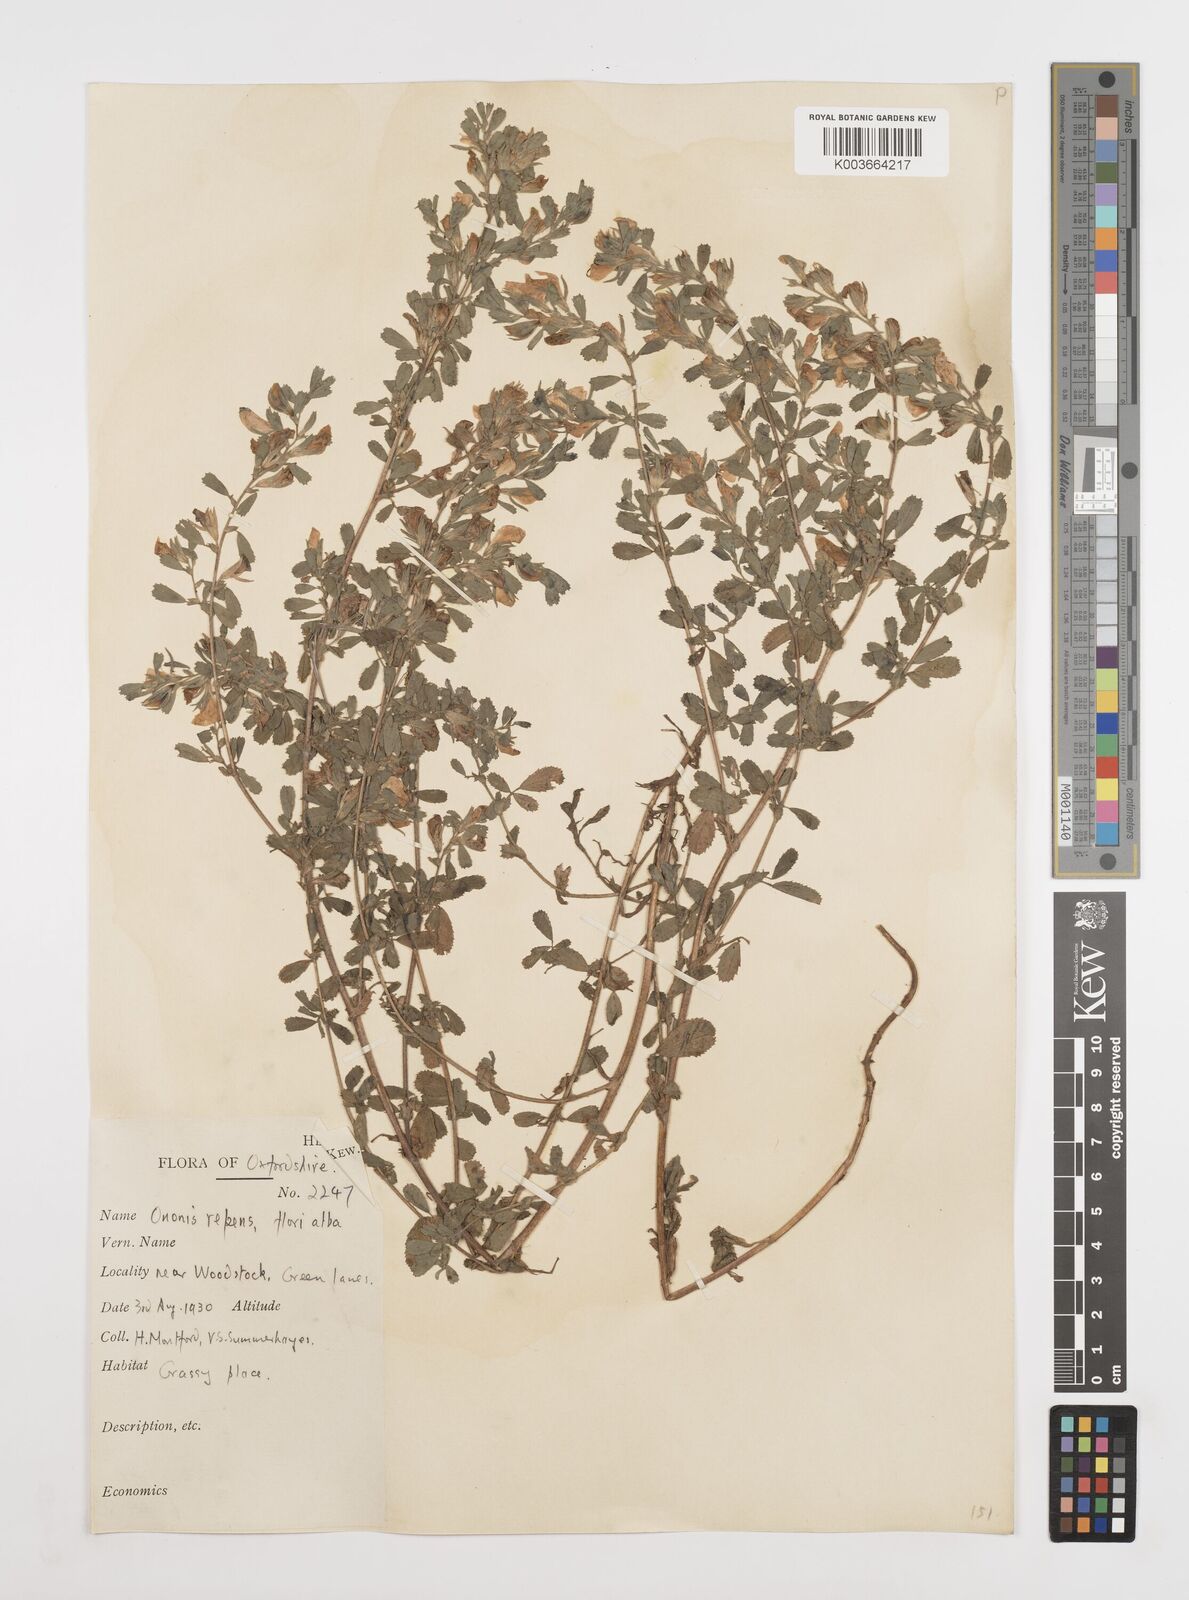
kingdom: Plantae
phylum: Tracheophyta
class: Magnoliopsida
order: Fabales
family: Fabaceae
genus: Ononis
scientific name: Ononis spinosa
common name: Spiny restharrow
